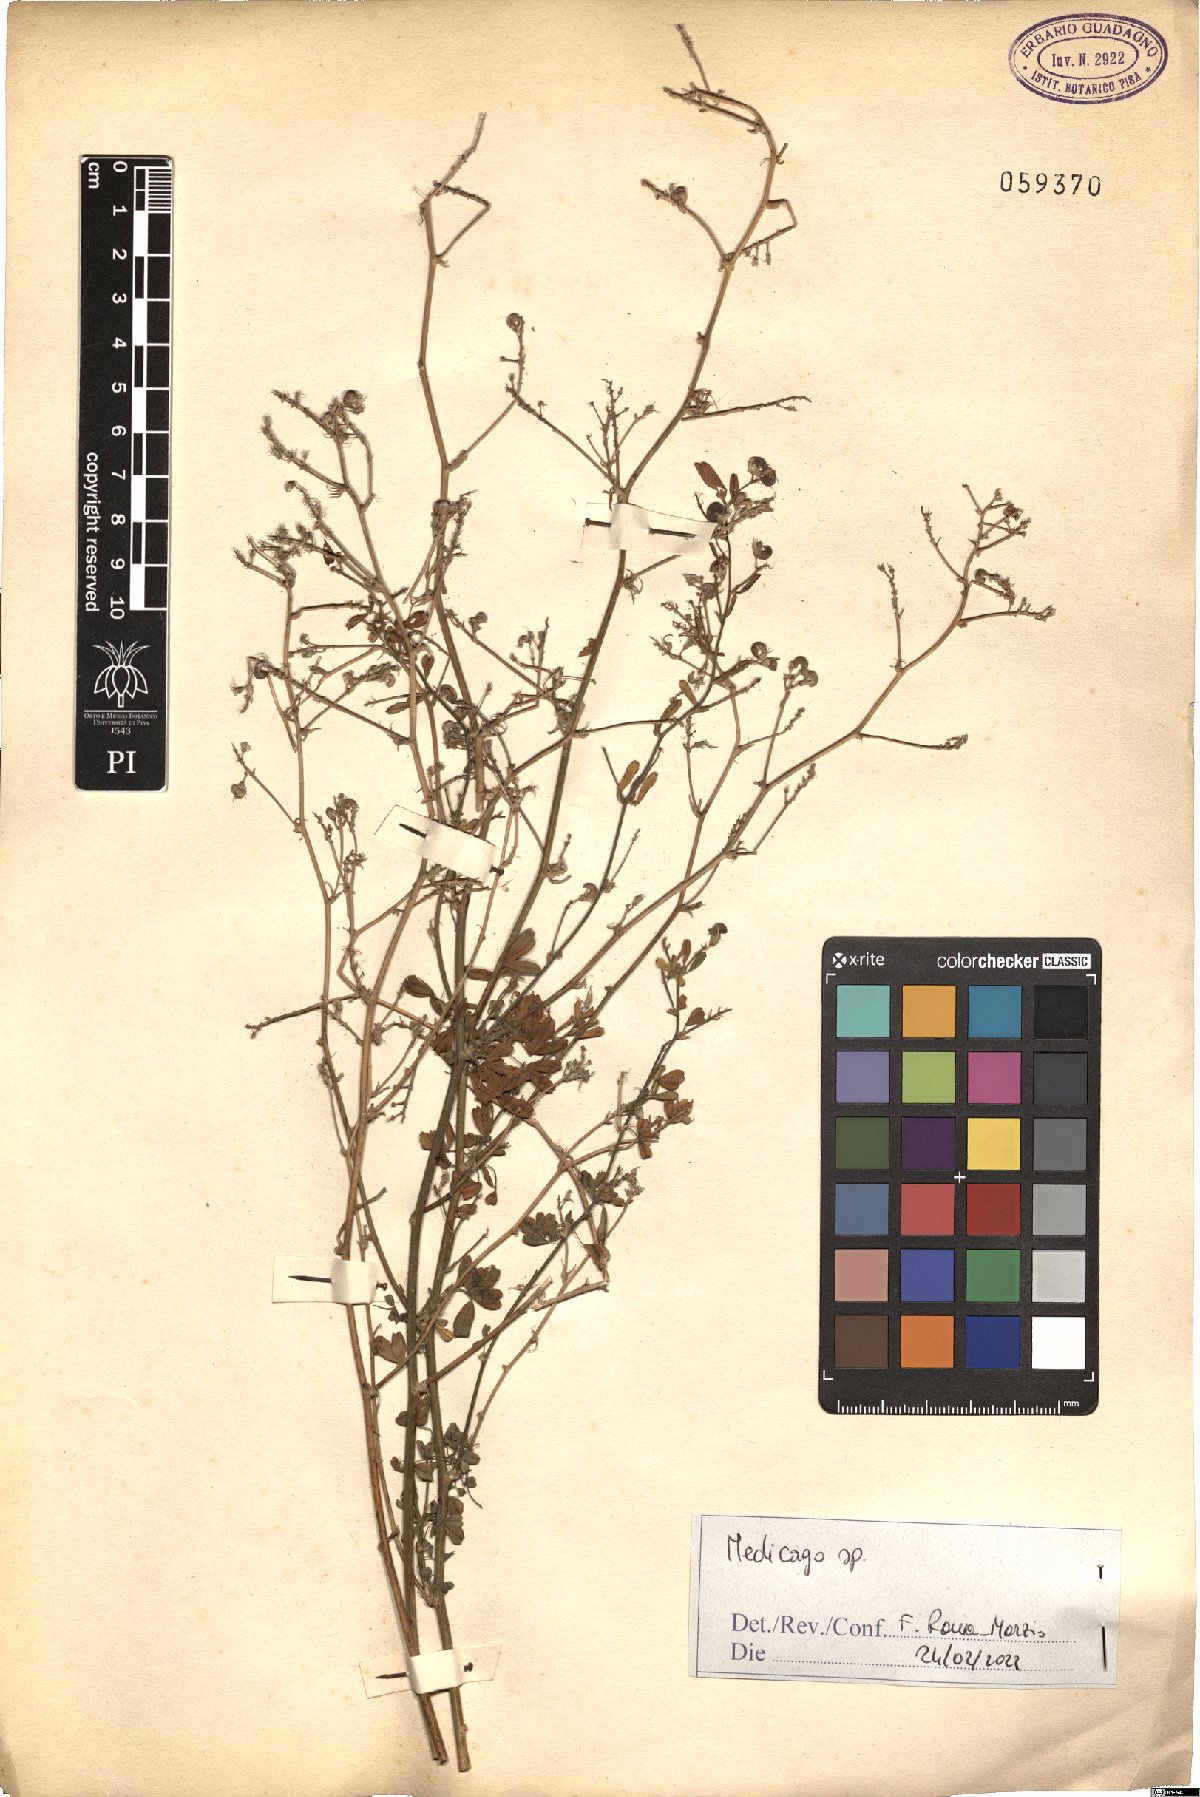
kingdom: Plantae
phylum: Tracheophyta
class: Magnoliopsida
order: Fabales
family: Fabaceae
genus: Medicago
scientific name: Medicago
